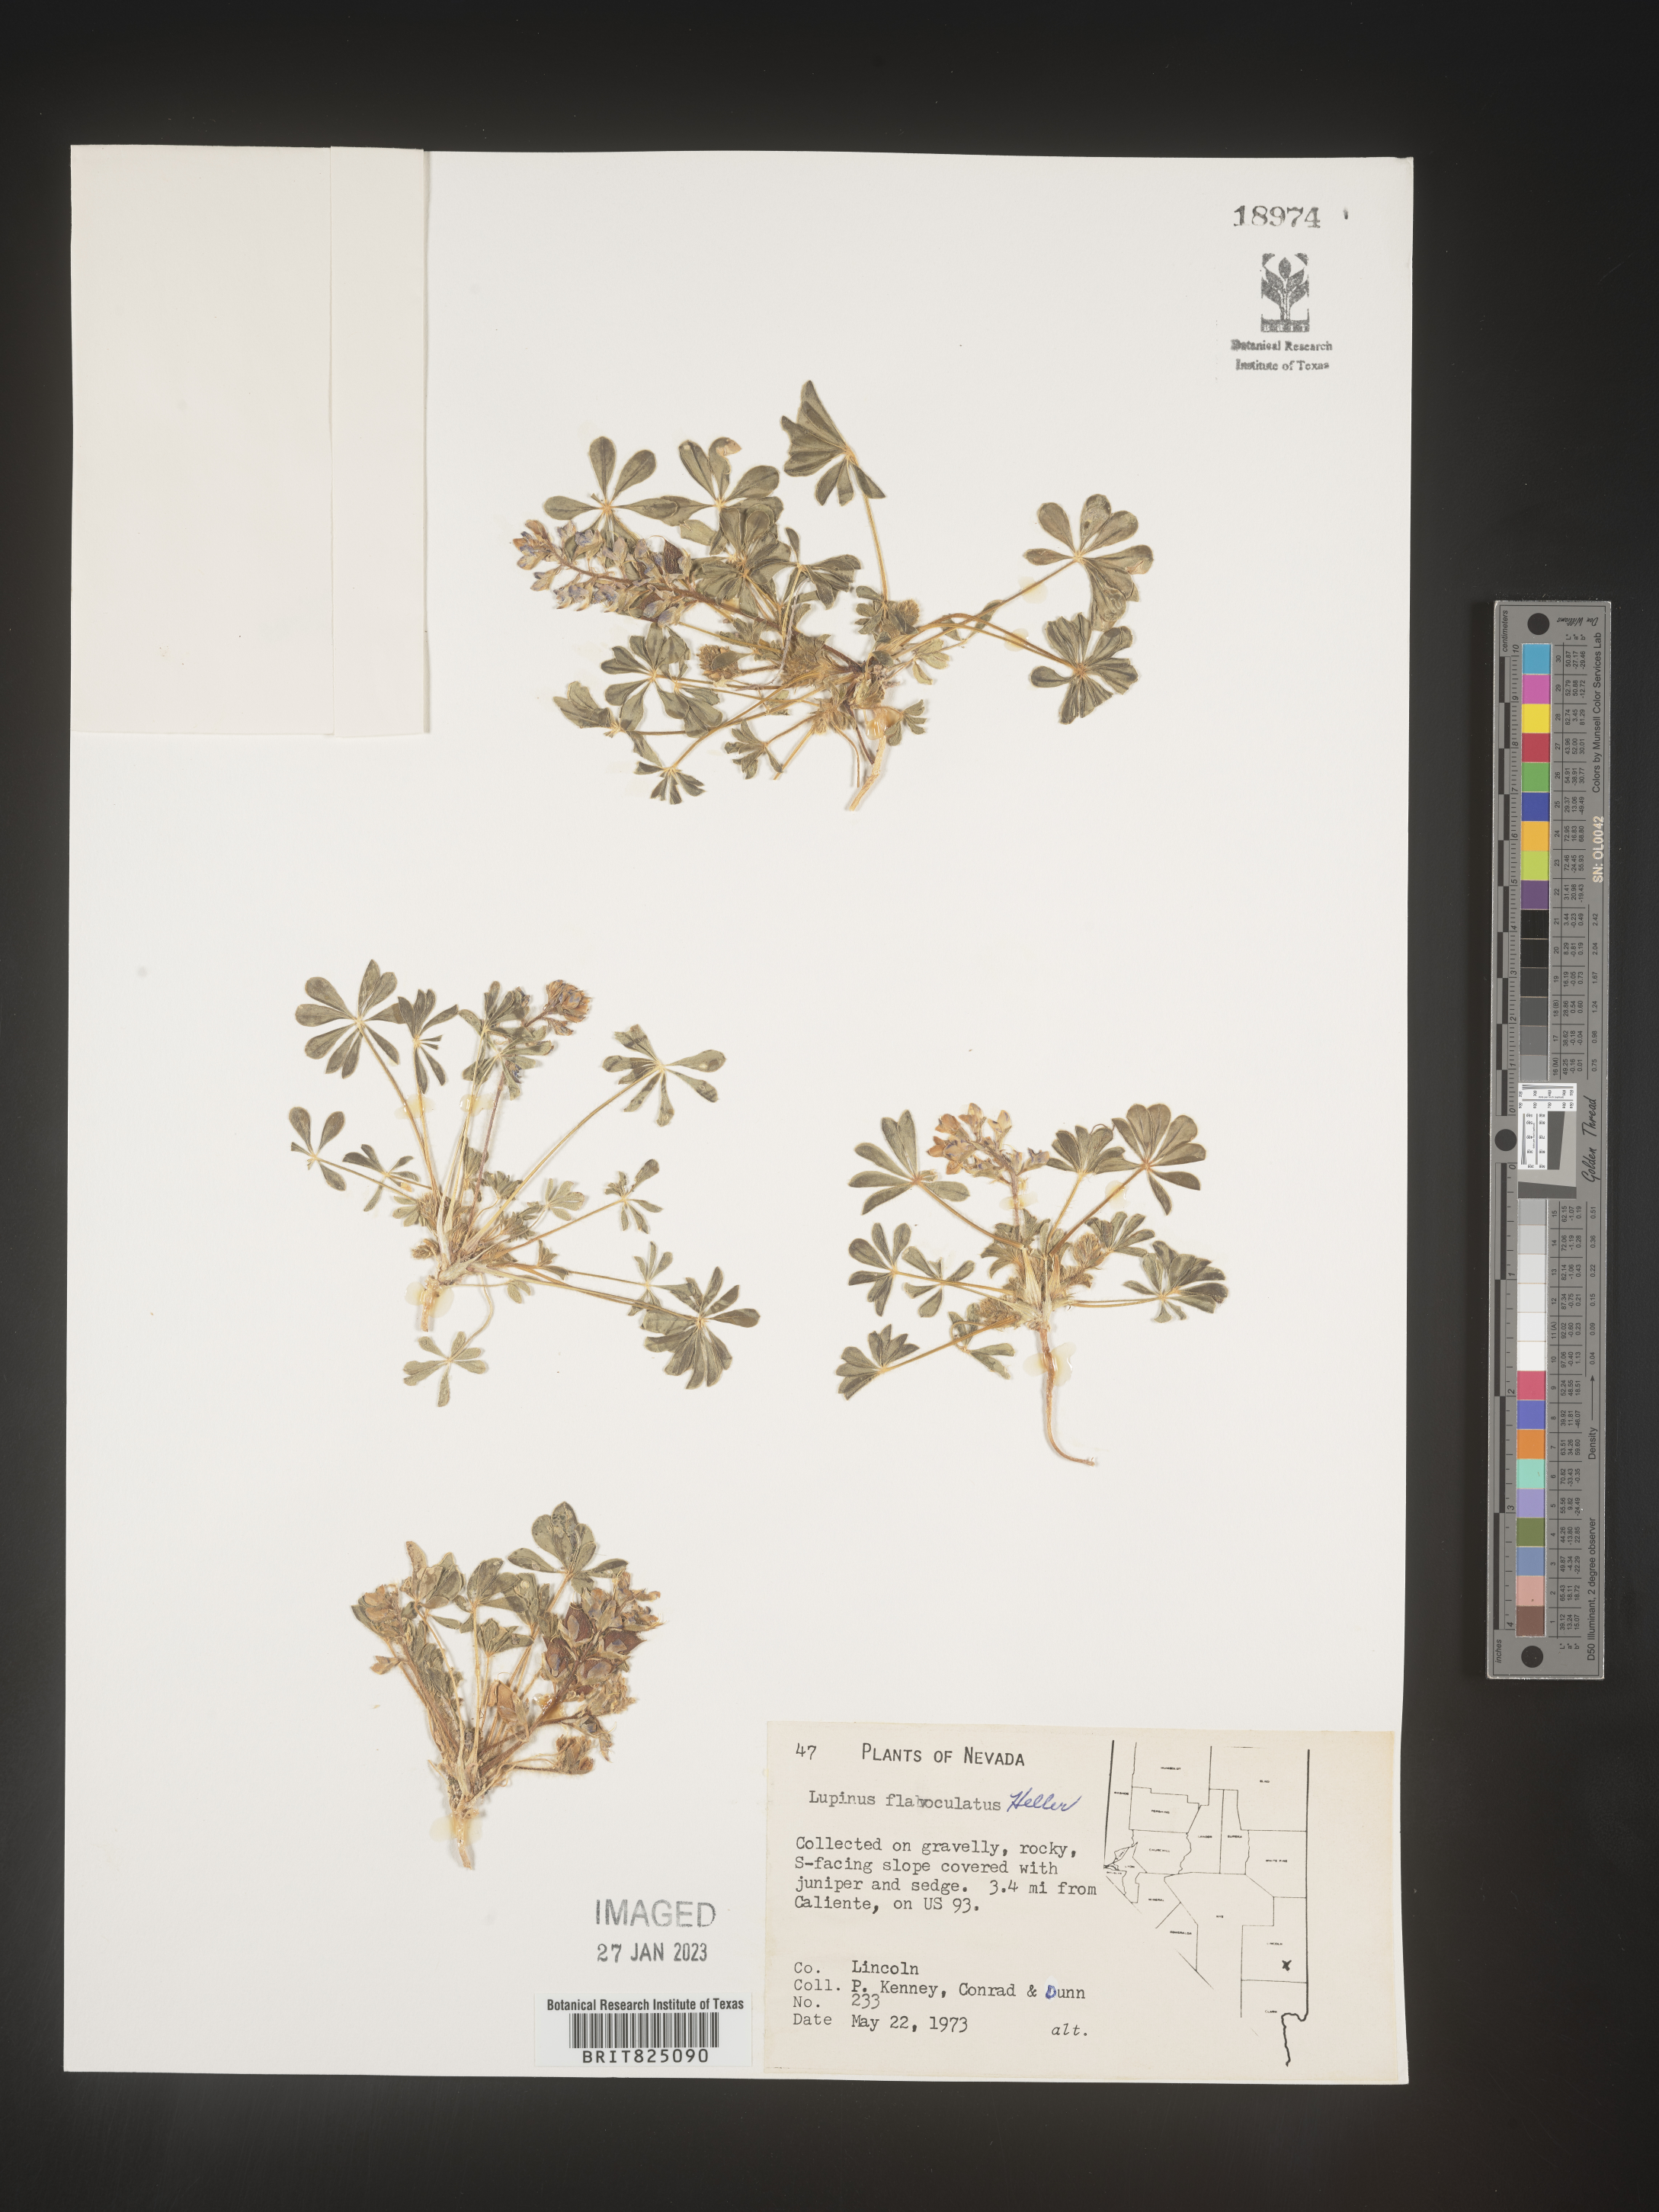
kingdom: Plantae
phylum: Tracheophyta
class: Magnoliopsida
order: Fabales
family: Fabaceae
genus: Lupinus
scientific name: Lupinus
